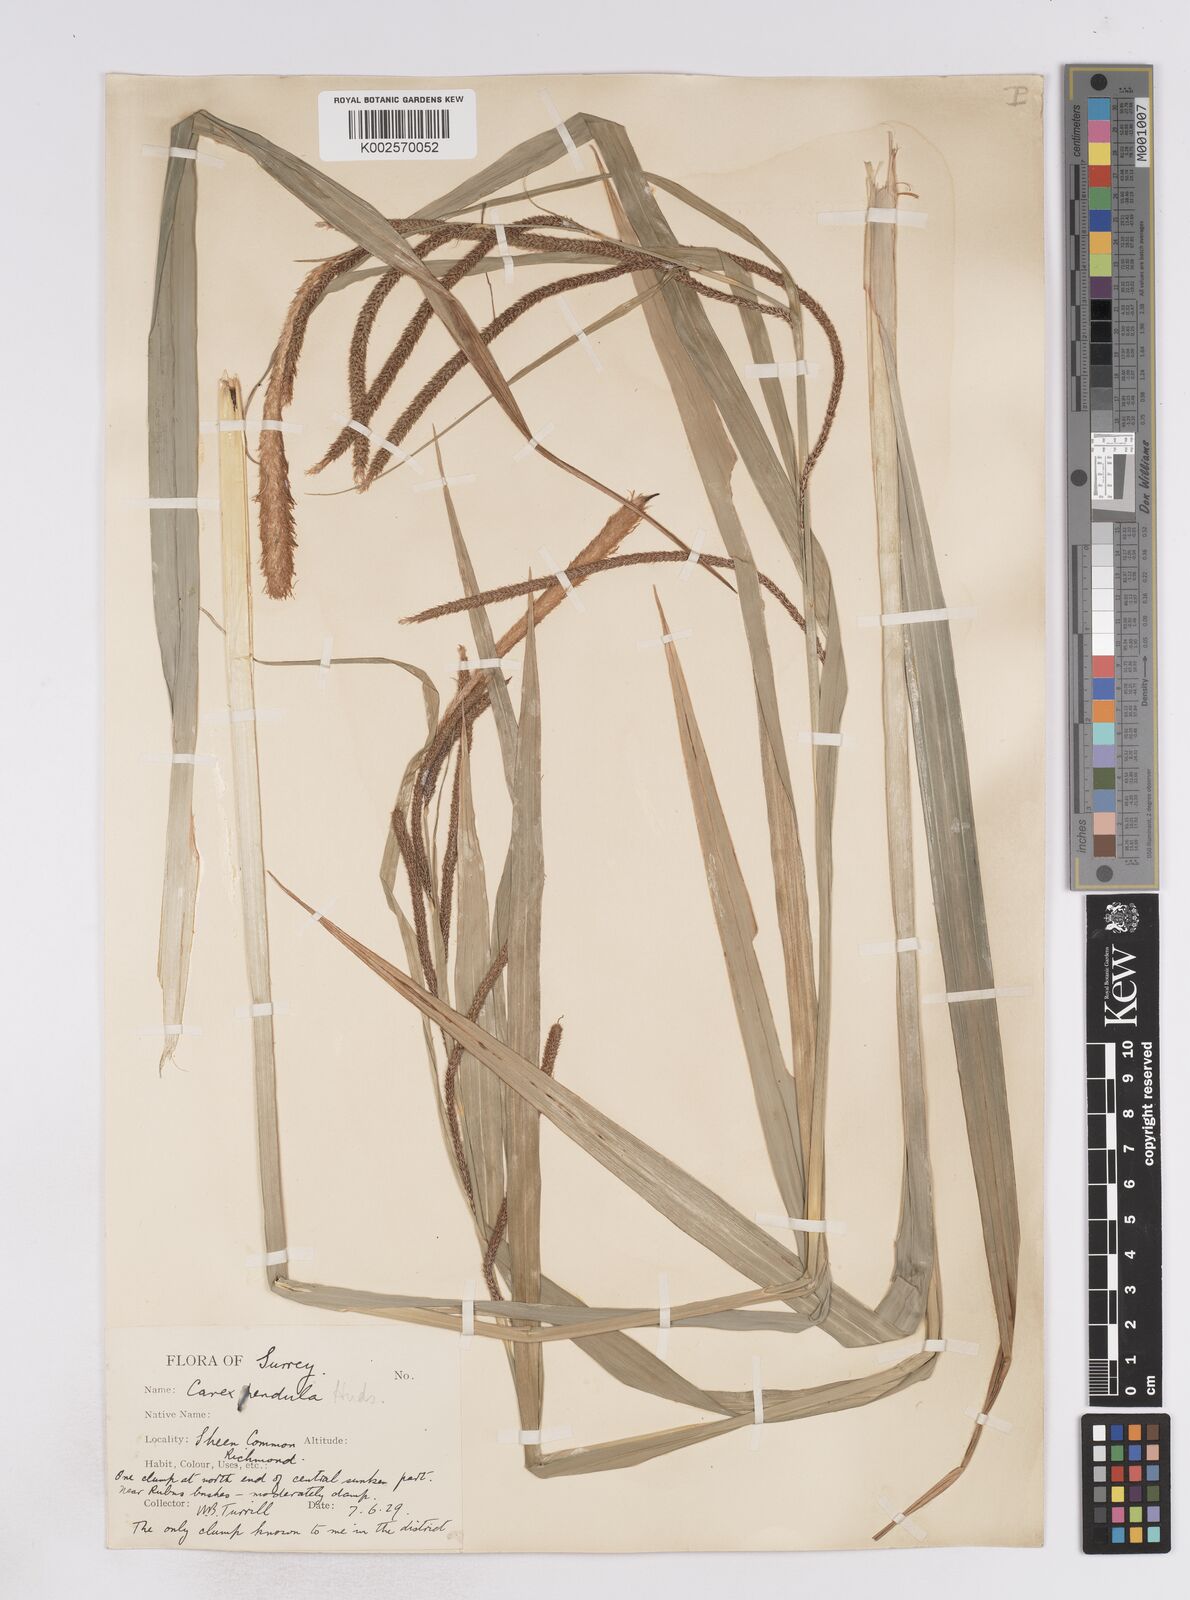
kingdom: Plantae
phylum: Tracheophyta
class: Liliopsida
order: Poales
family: Cyperaceae
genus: Carex
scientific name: Carex pendula
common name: Pendulous sedge
